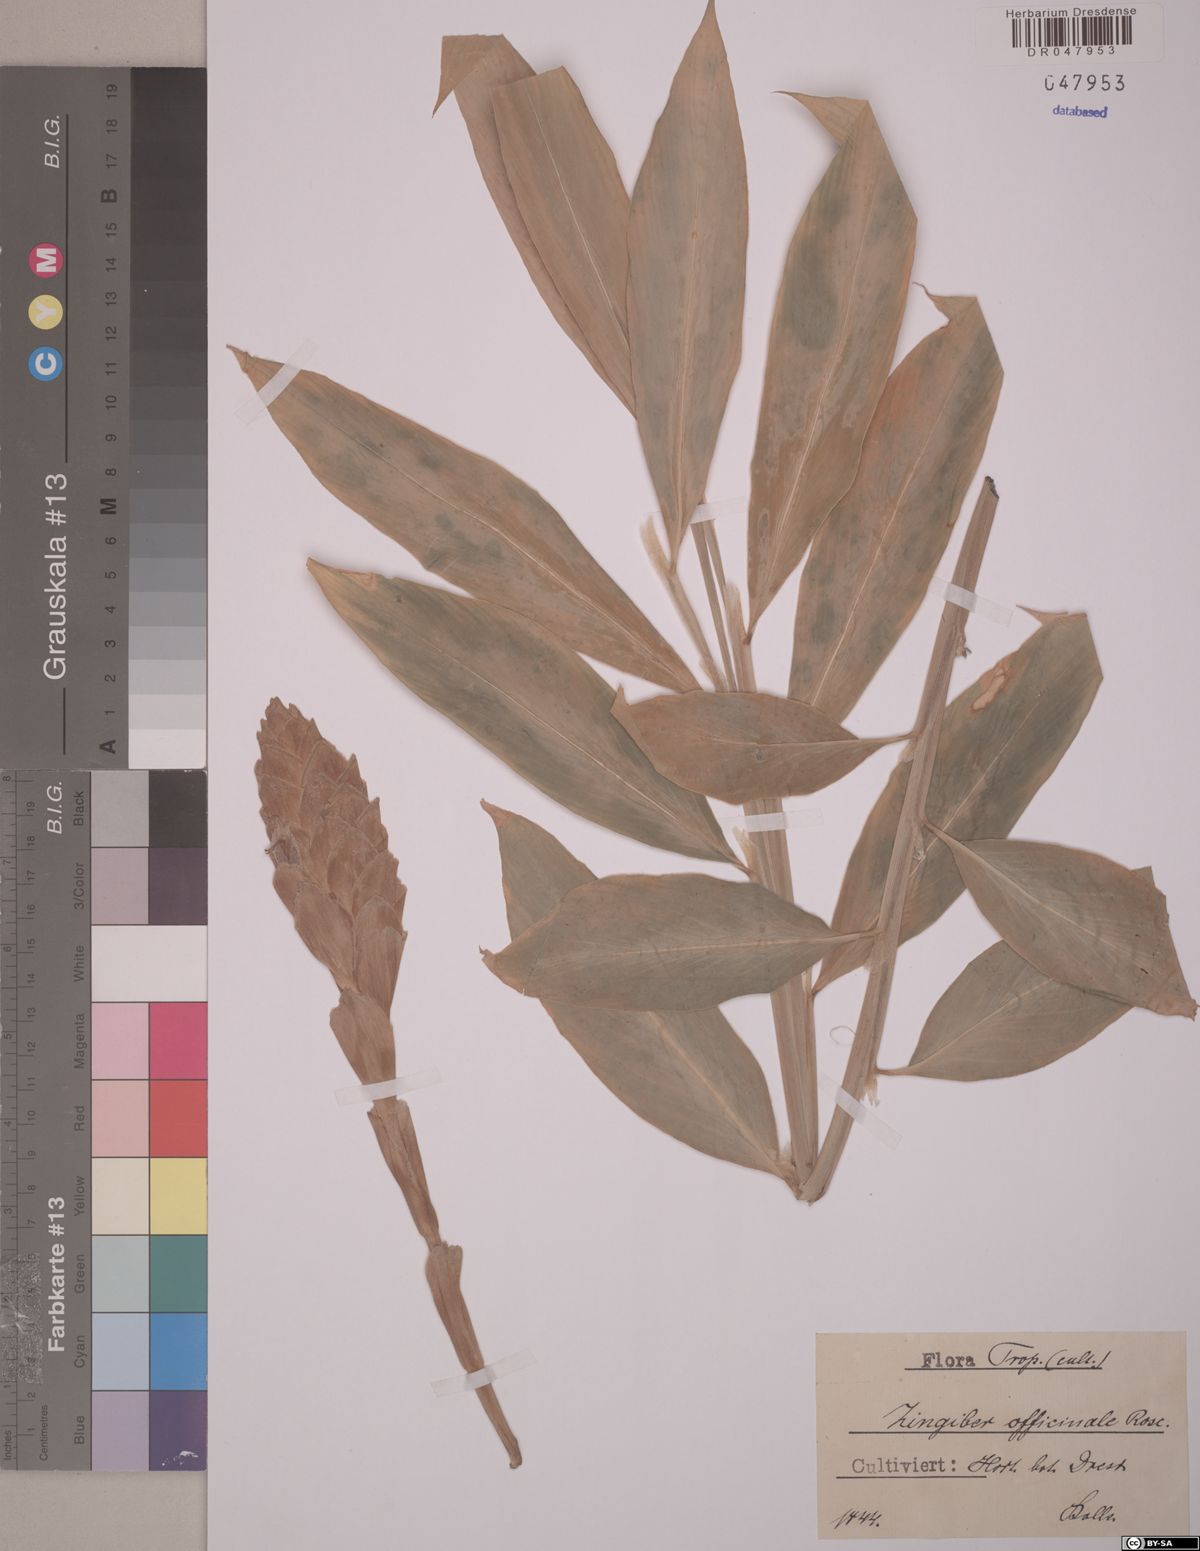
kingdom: Plantae
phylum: Tracheophyta
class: Liliopsida
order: Zingiberales
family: Zingiberaceae
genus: Zingiber
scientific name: Zingiber officinale
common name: Ginger
